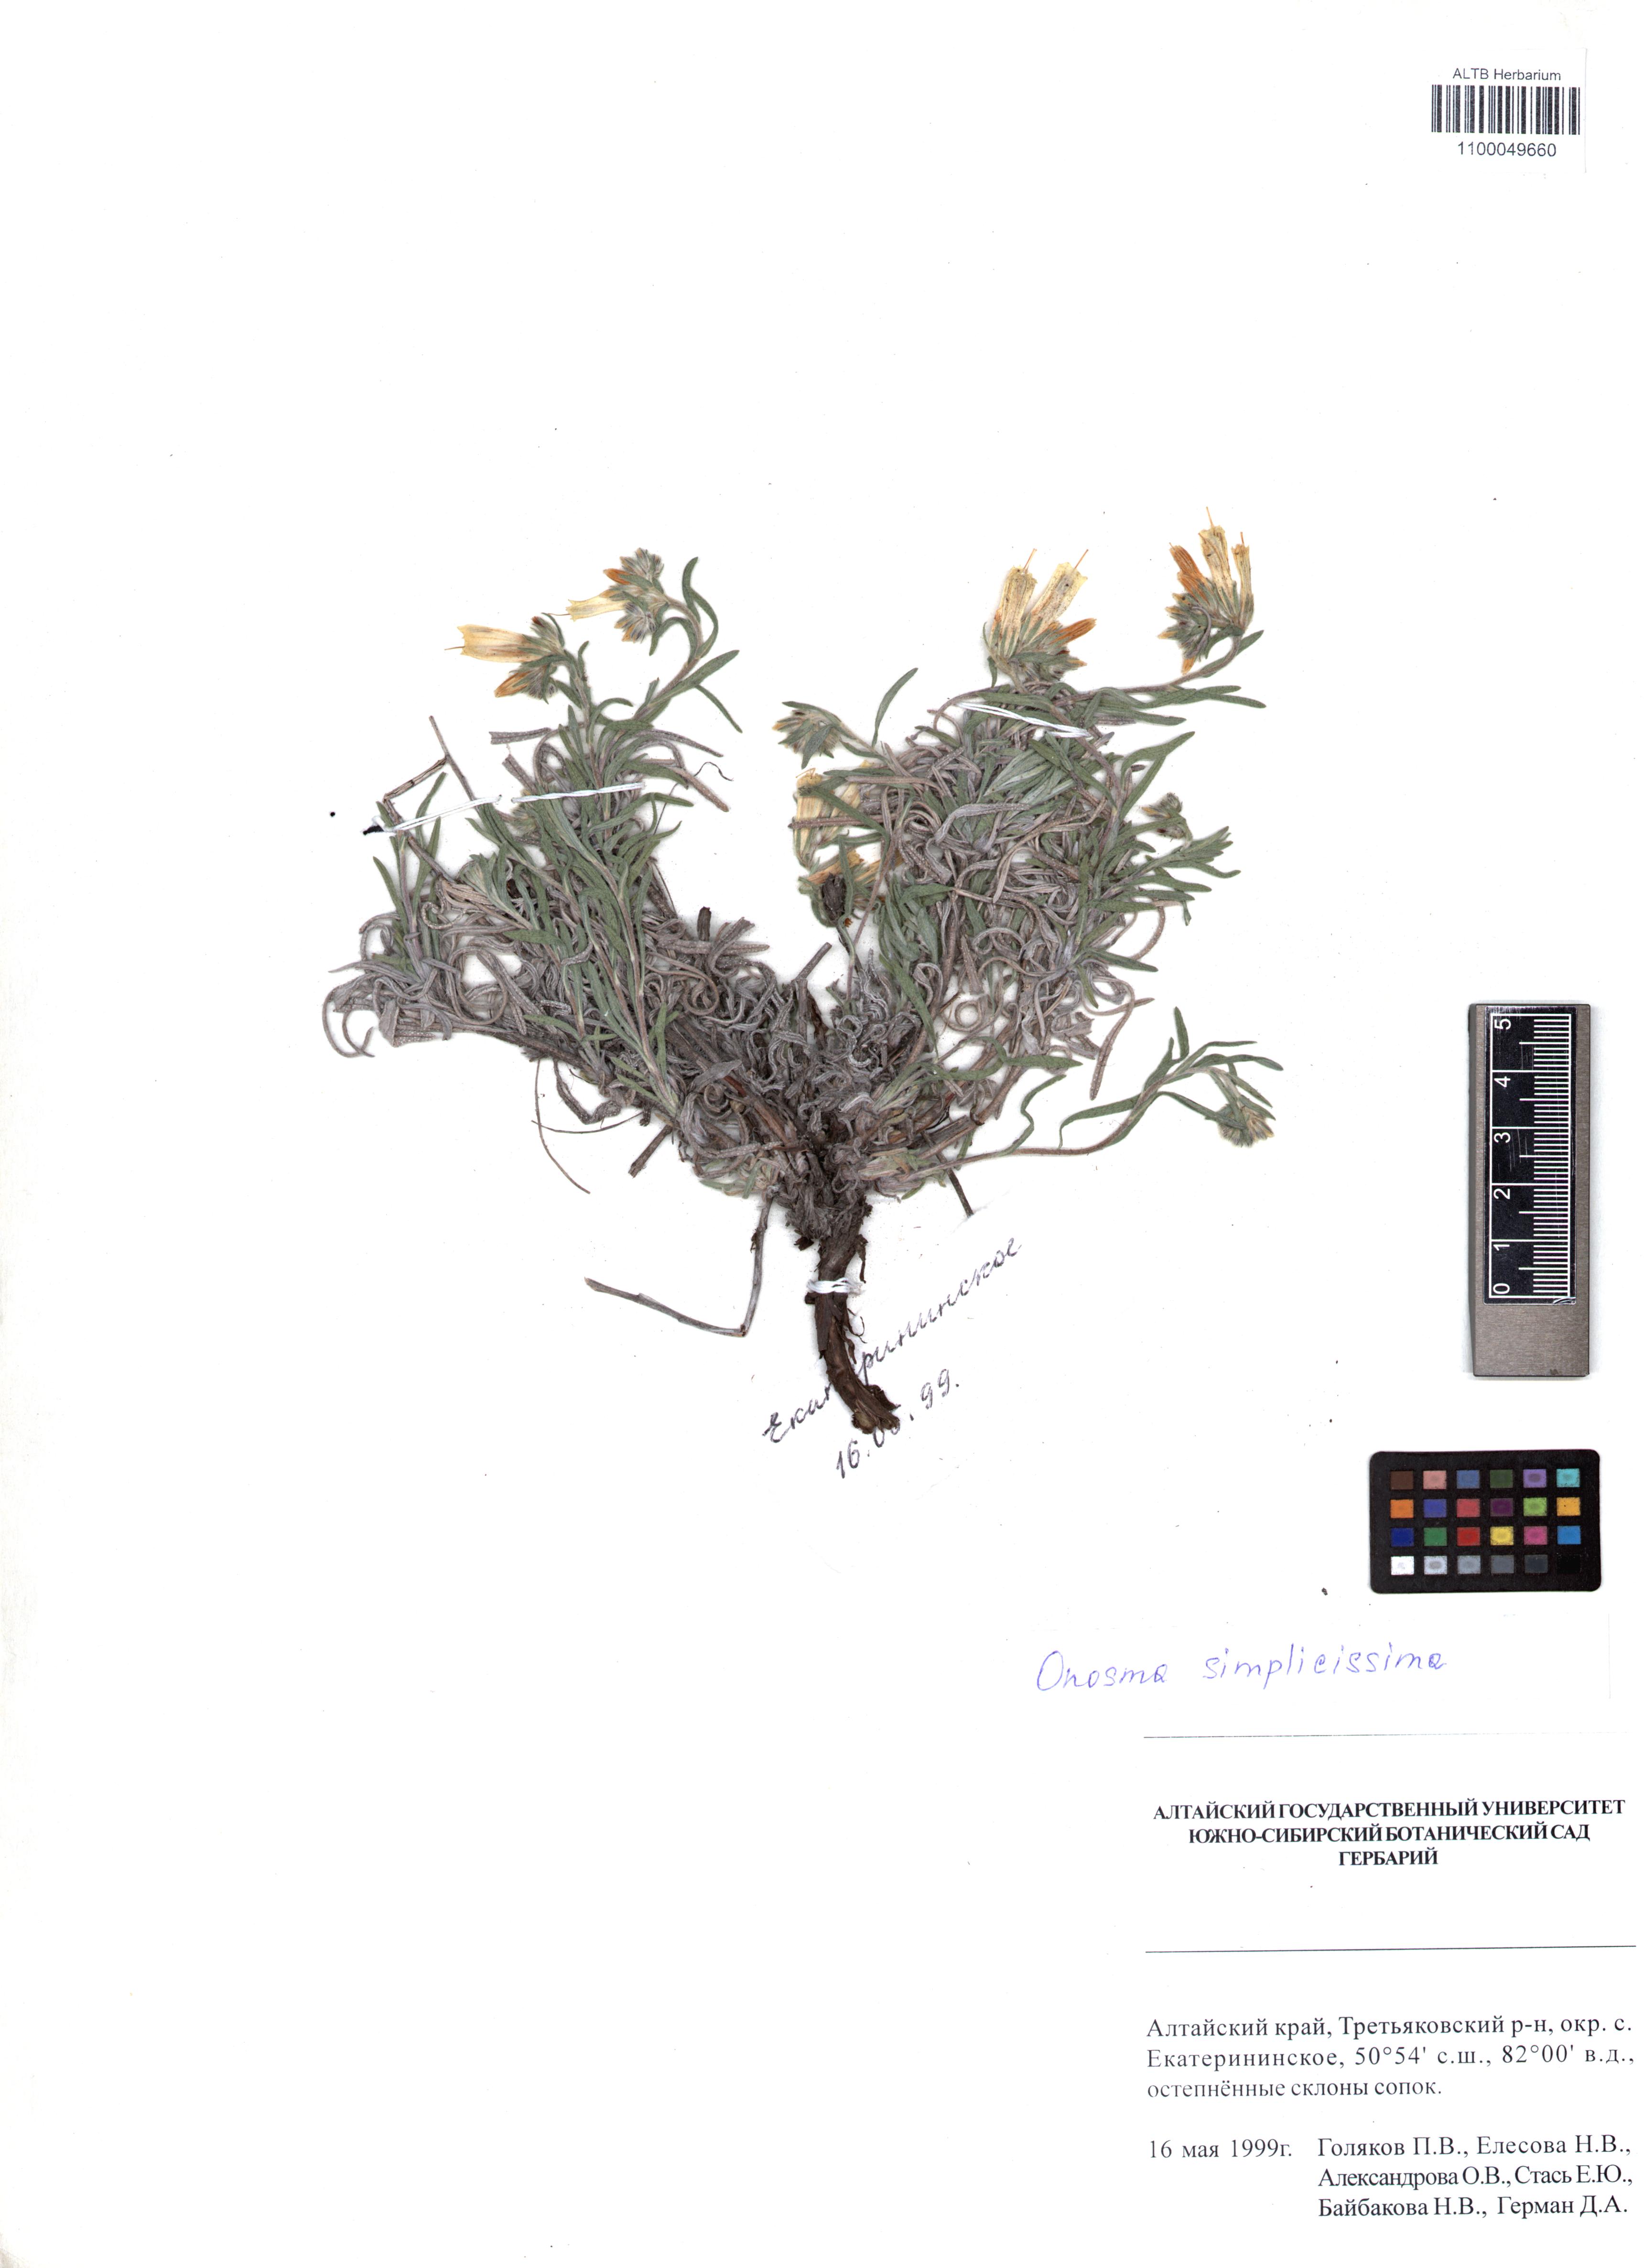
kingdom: Plantae
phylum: Tracheophyta
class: Magnoliopsida
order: Boraginales
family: Boraginaceae
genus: Onosma
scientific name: Onosma simplicissima
